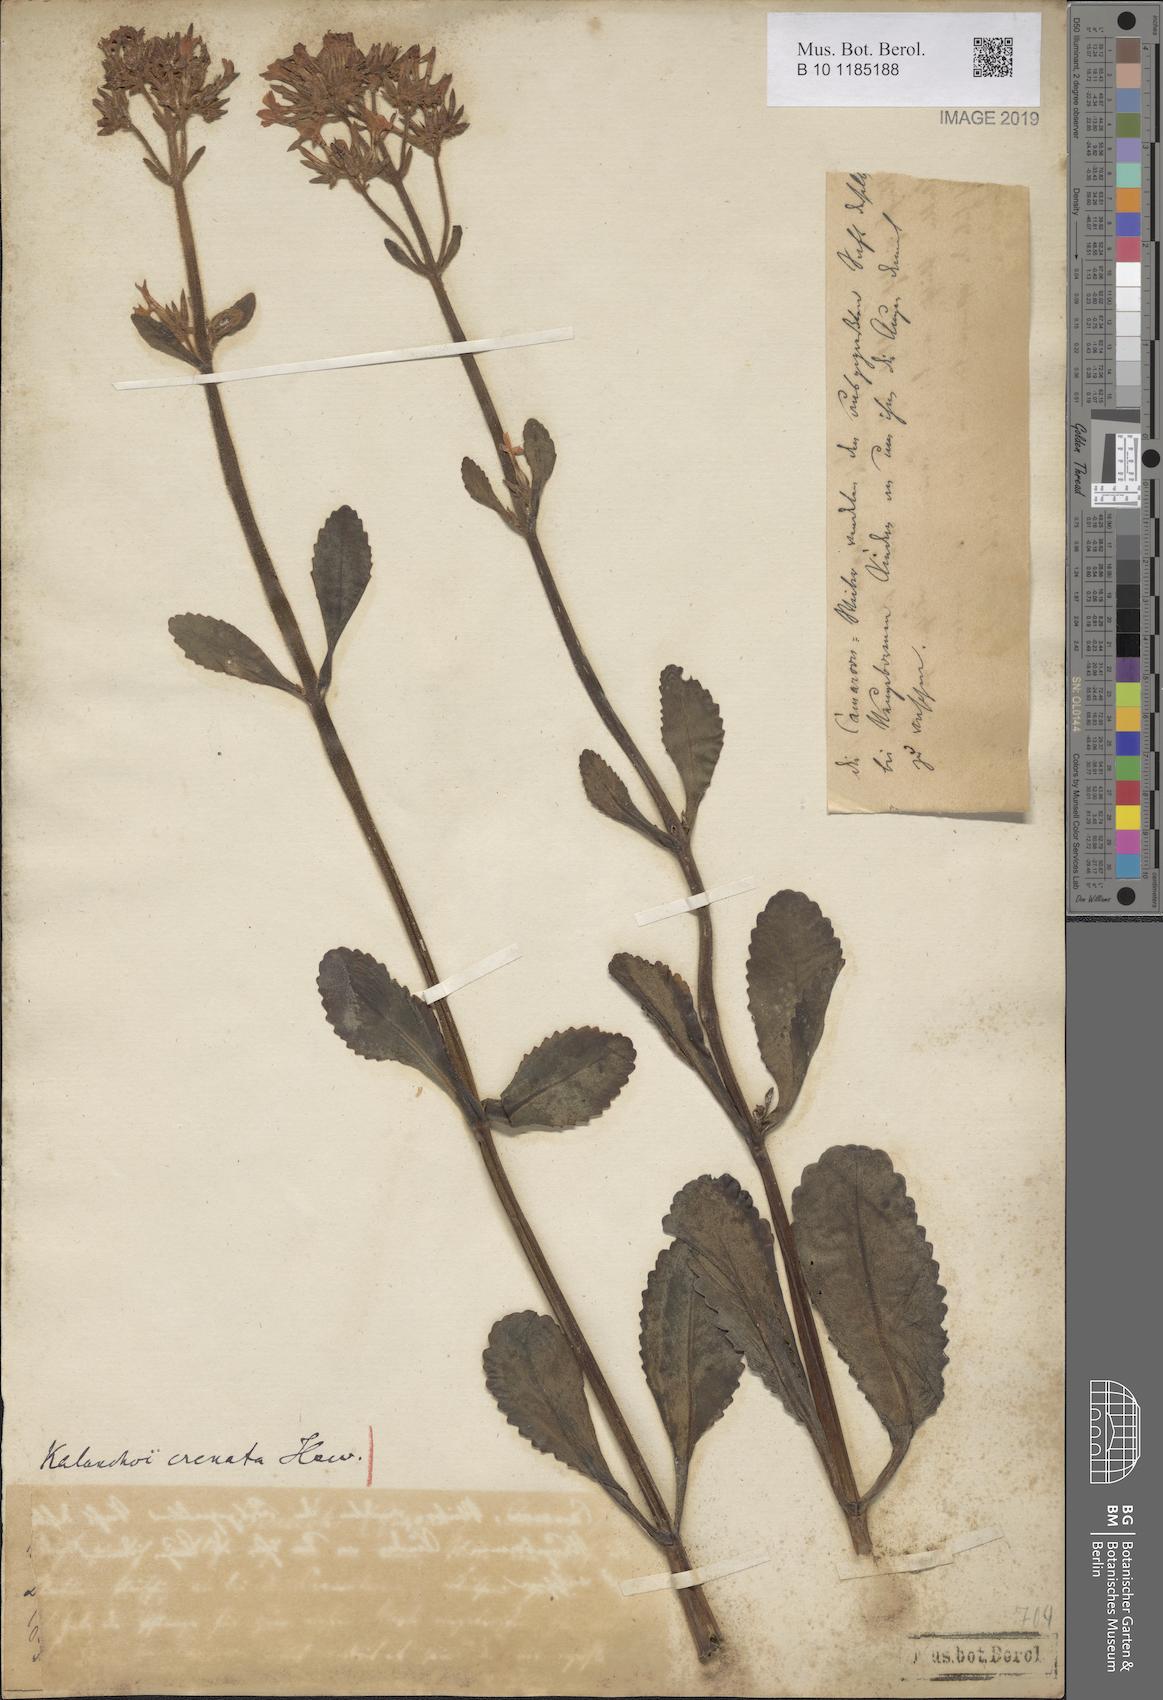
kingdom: Plantae
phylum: Tracheophyta
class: Magnoliopsida
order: Saxifragales
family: Crassulaceae
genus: Kalanchoe
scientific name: Kalanchoe crenata
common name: Neverdie
